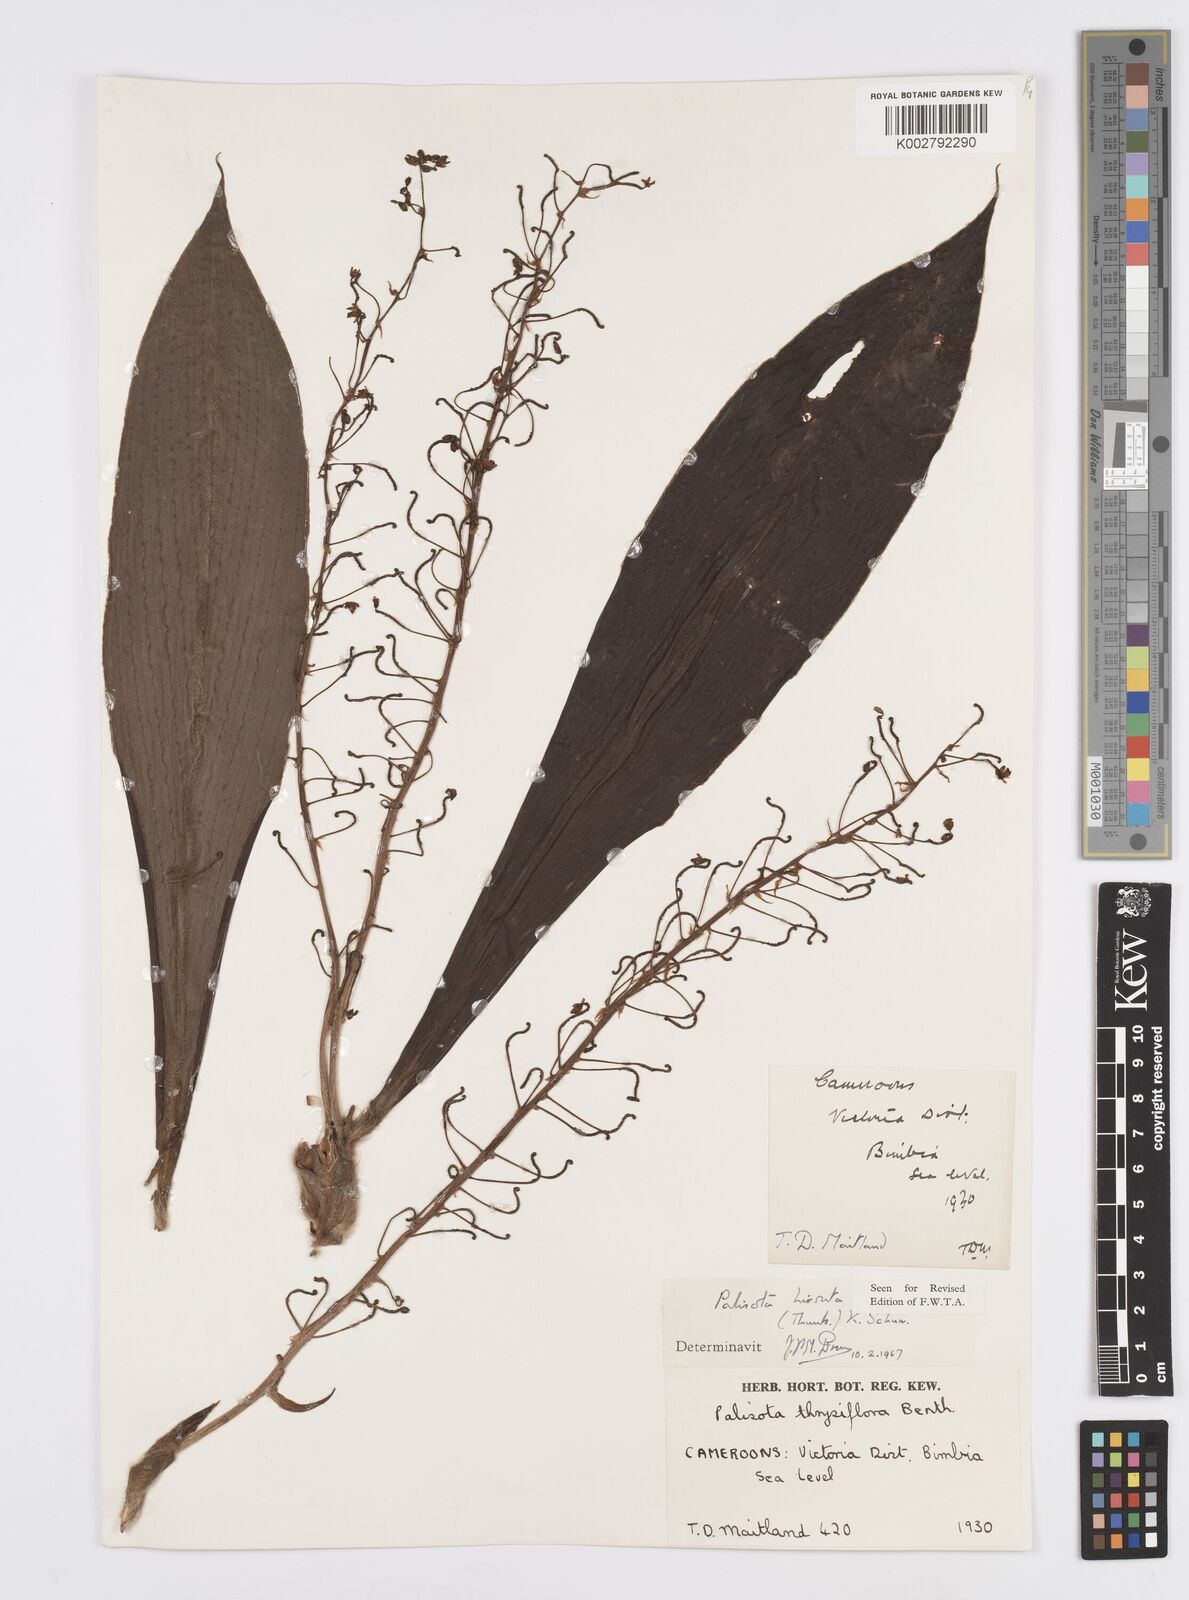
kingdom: Plantae
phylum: Tracheophyta
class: Liliopsida
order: Commelinales
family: Commelinaceae
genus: Palisota
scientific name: Palisota hirsuta
